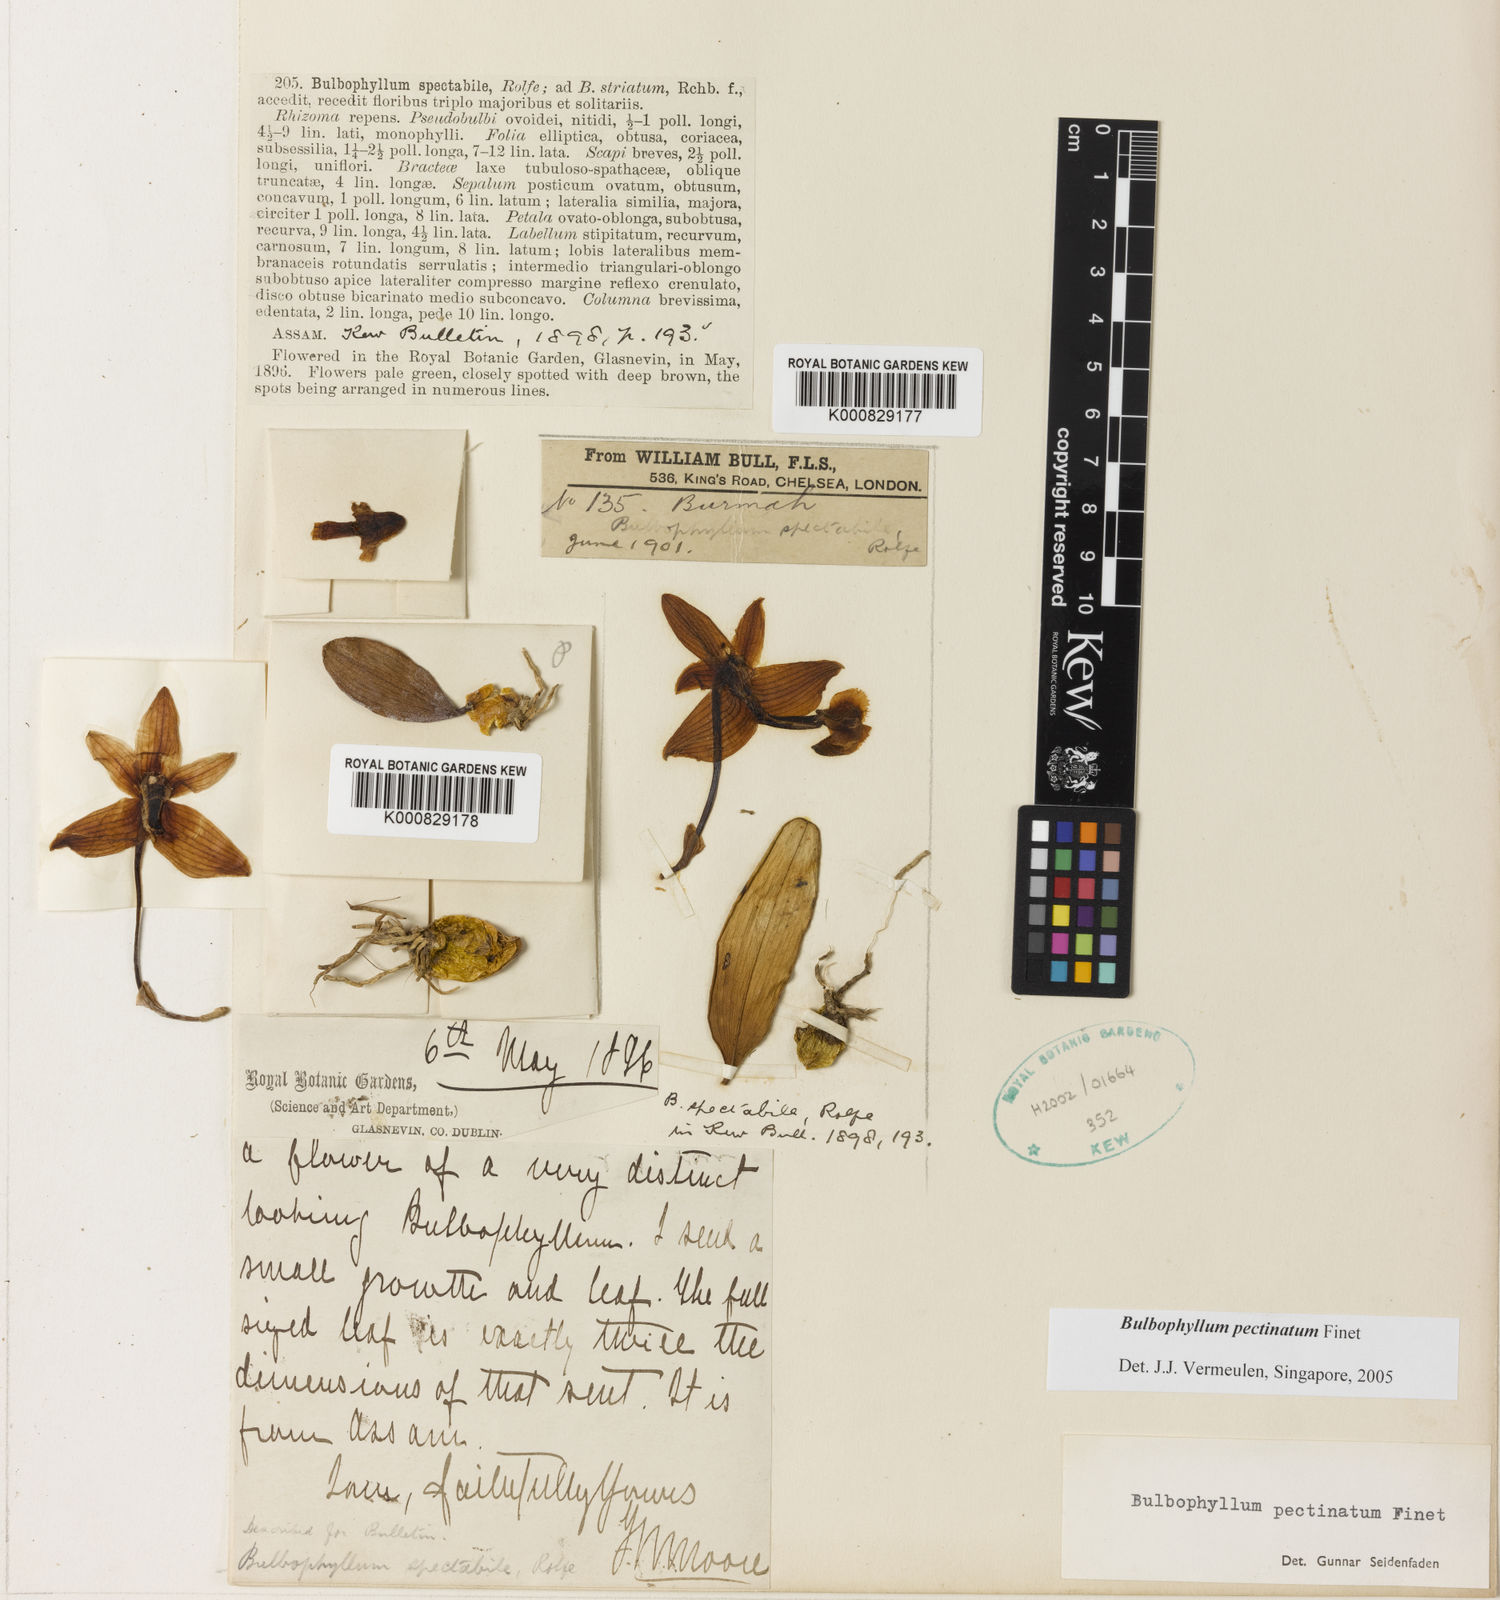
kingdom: Plantae
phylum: Tracheophyta
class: Liliopsida
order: Asparagales
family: Orchidaceae
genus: Bulbophyllum
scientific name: Bulbophyllum pectinatum
